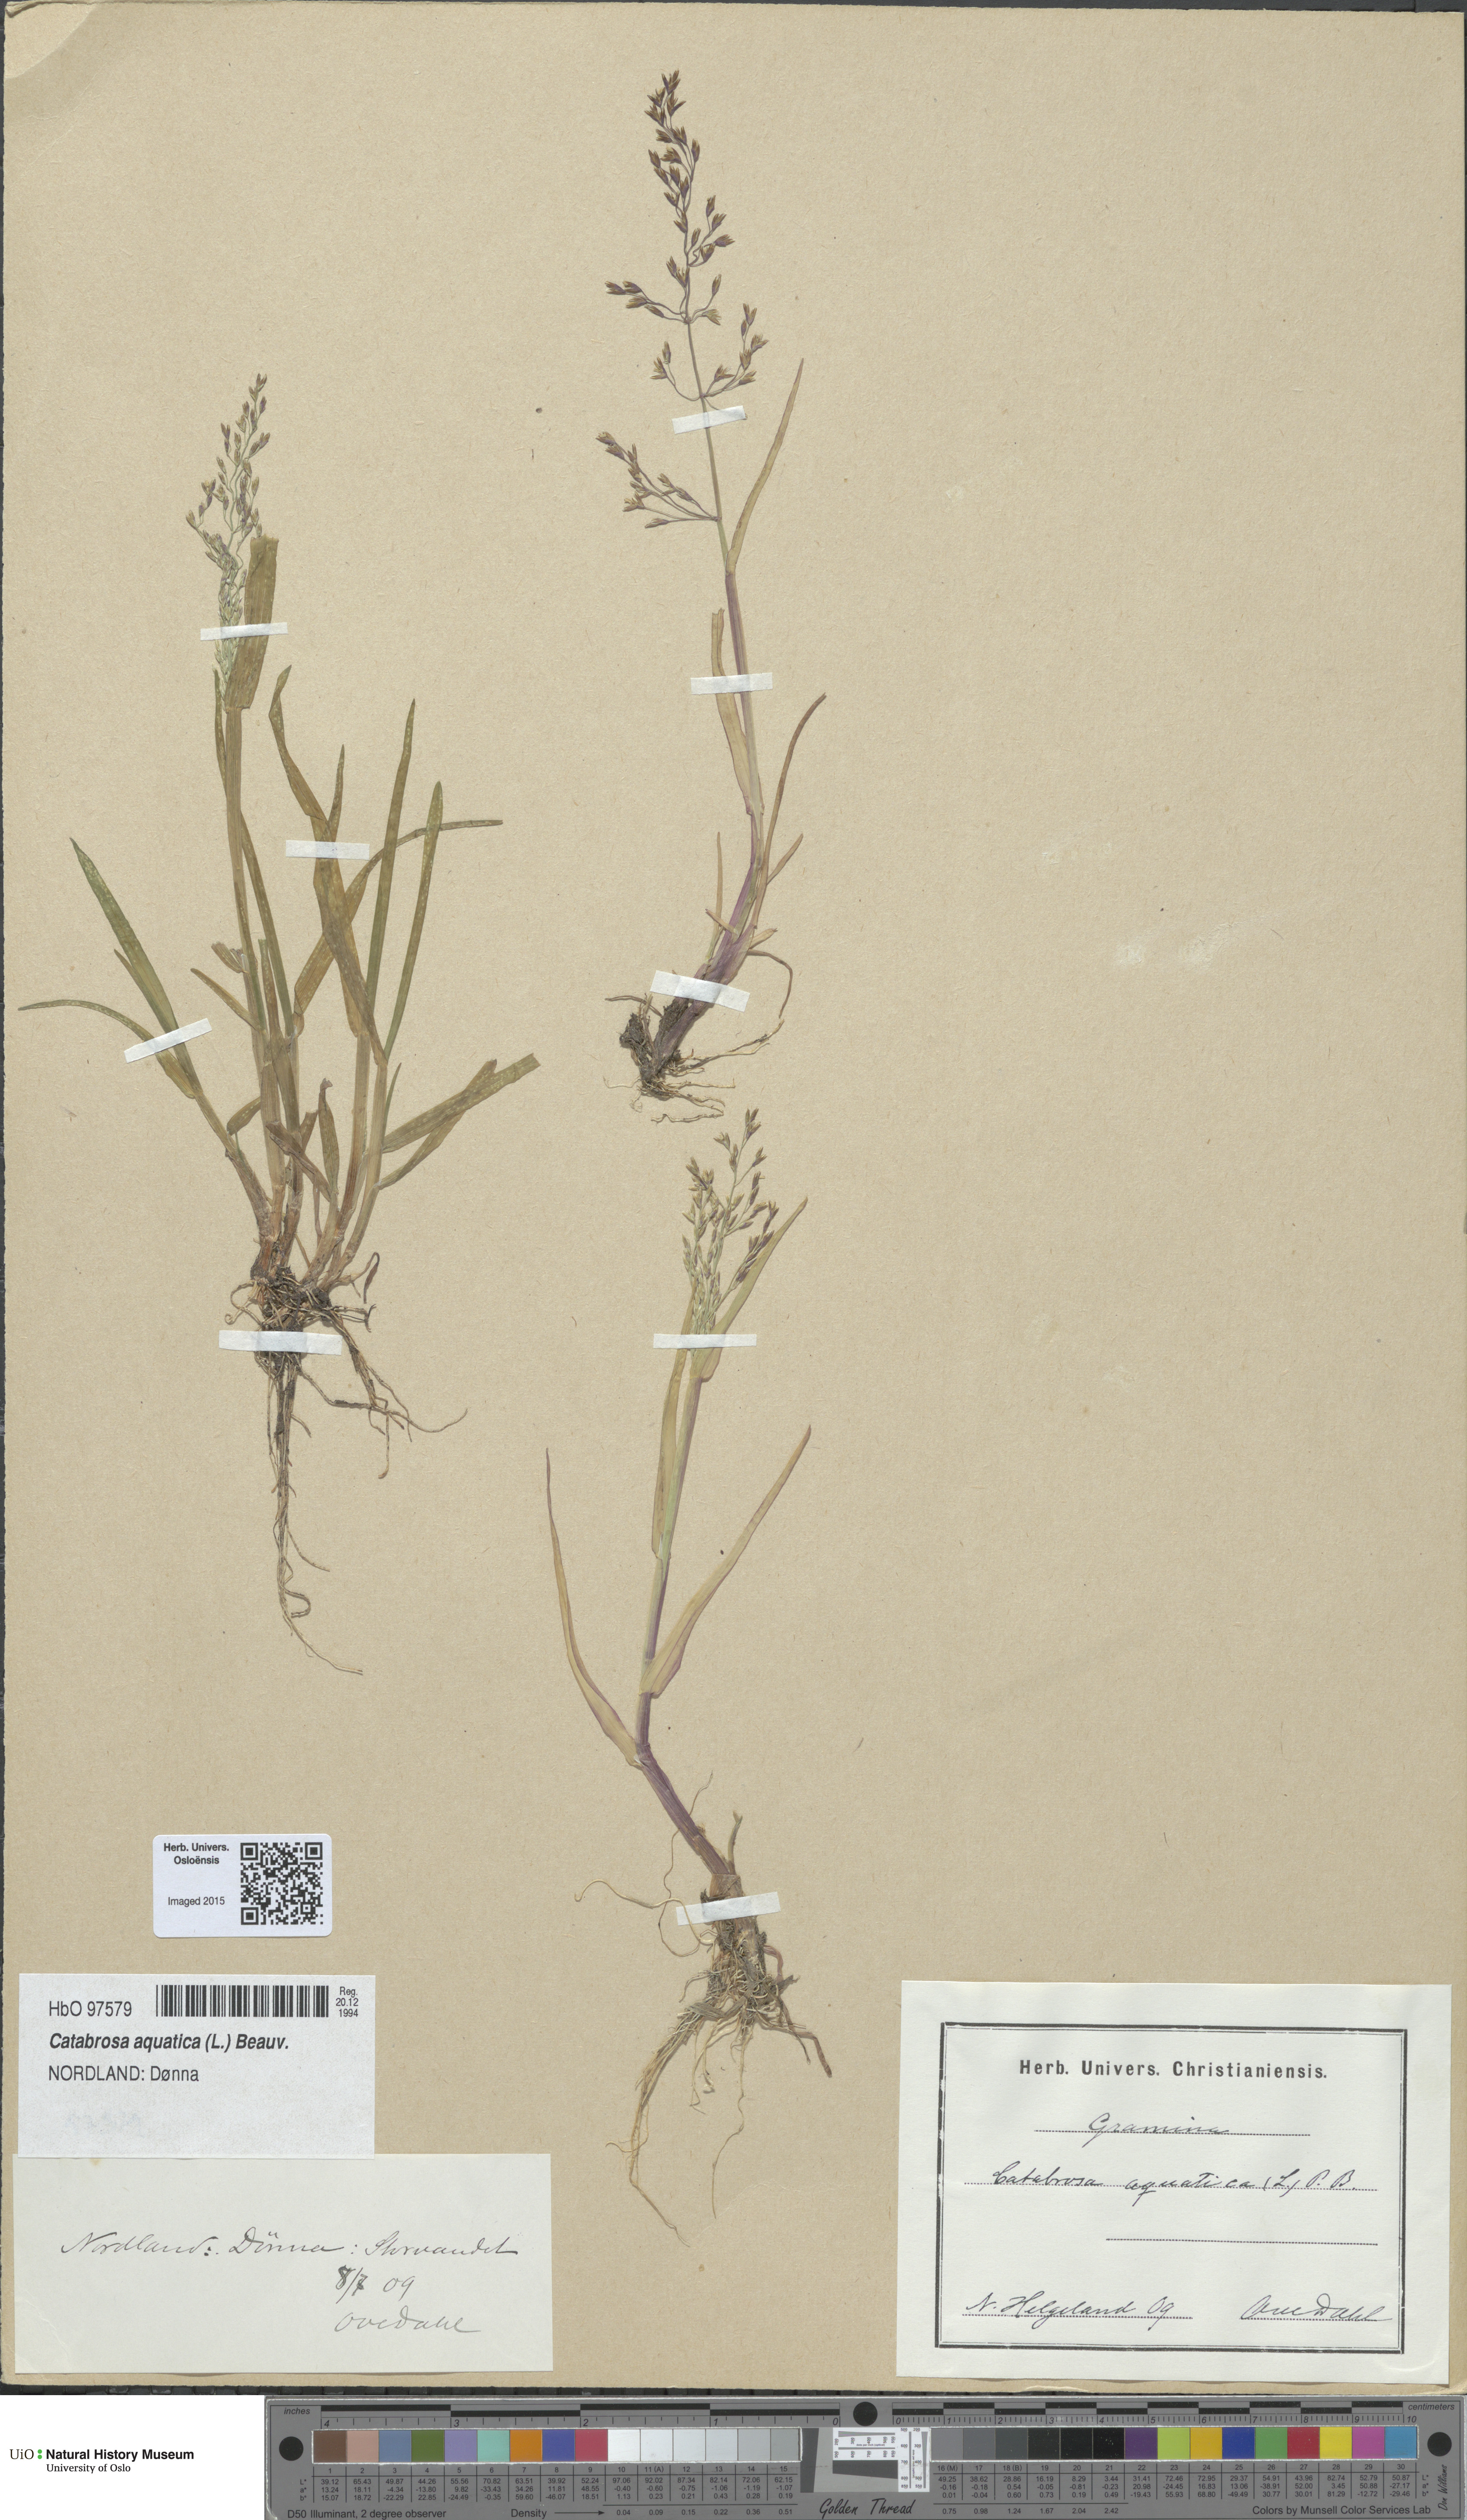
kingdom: Plantae
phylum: Tracheophyta
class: Liliopsida
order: Poales
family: Poaceae
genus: Catabrosa
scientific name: Catabrosa aquatica
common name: Whorl-grass
